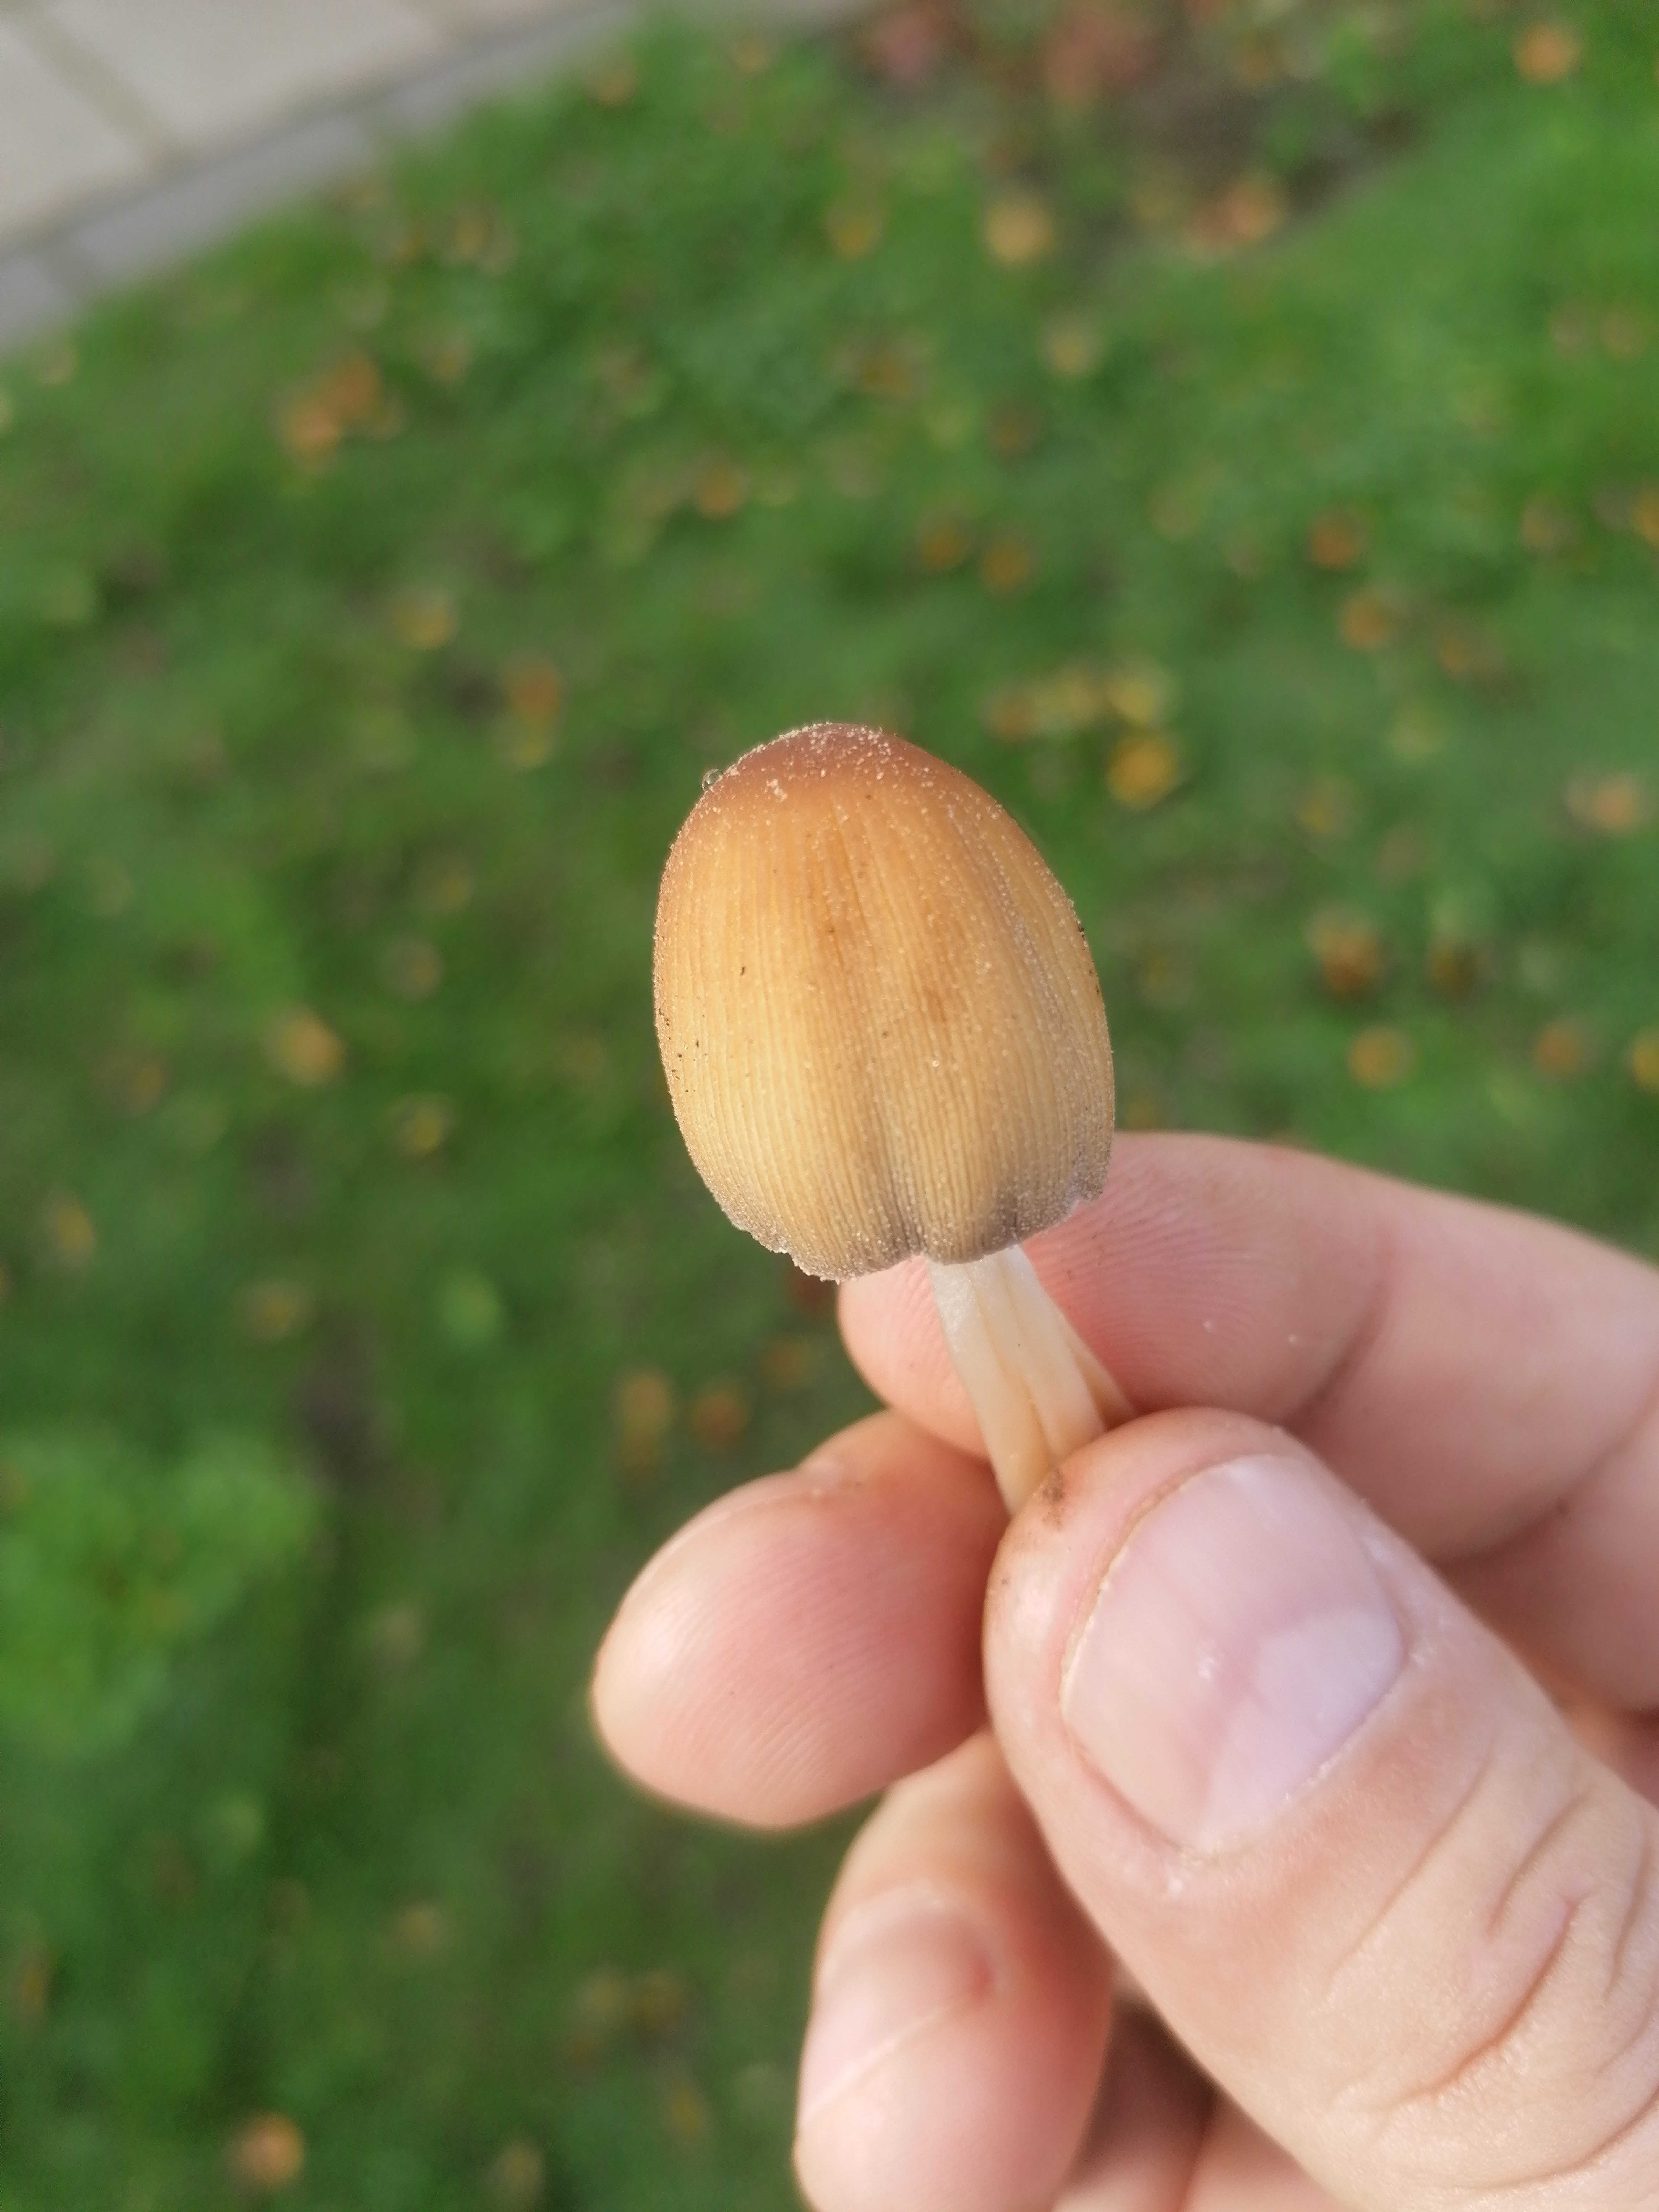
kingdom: Fungi
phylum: Basidiomycota
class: Agaricomycetes
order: Agaricales
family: Psathyrellaceae
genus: Coprinellus
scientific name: Coprinellus micaceus
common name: glimmer-blækhat
